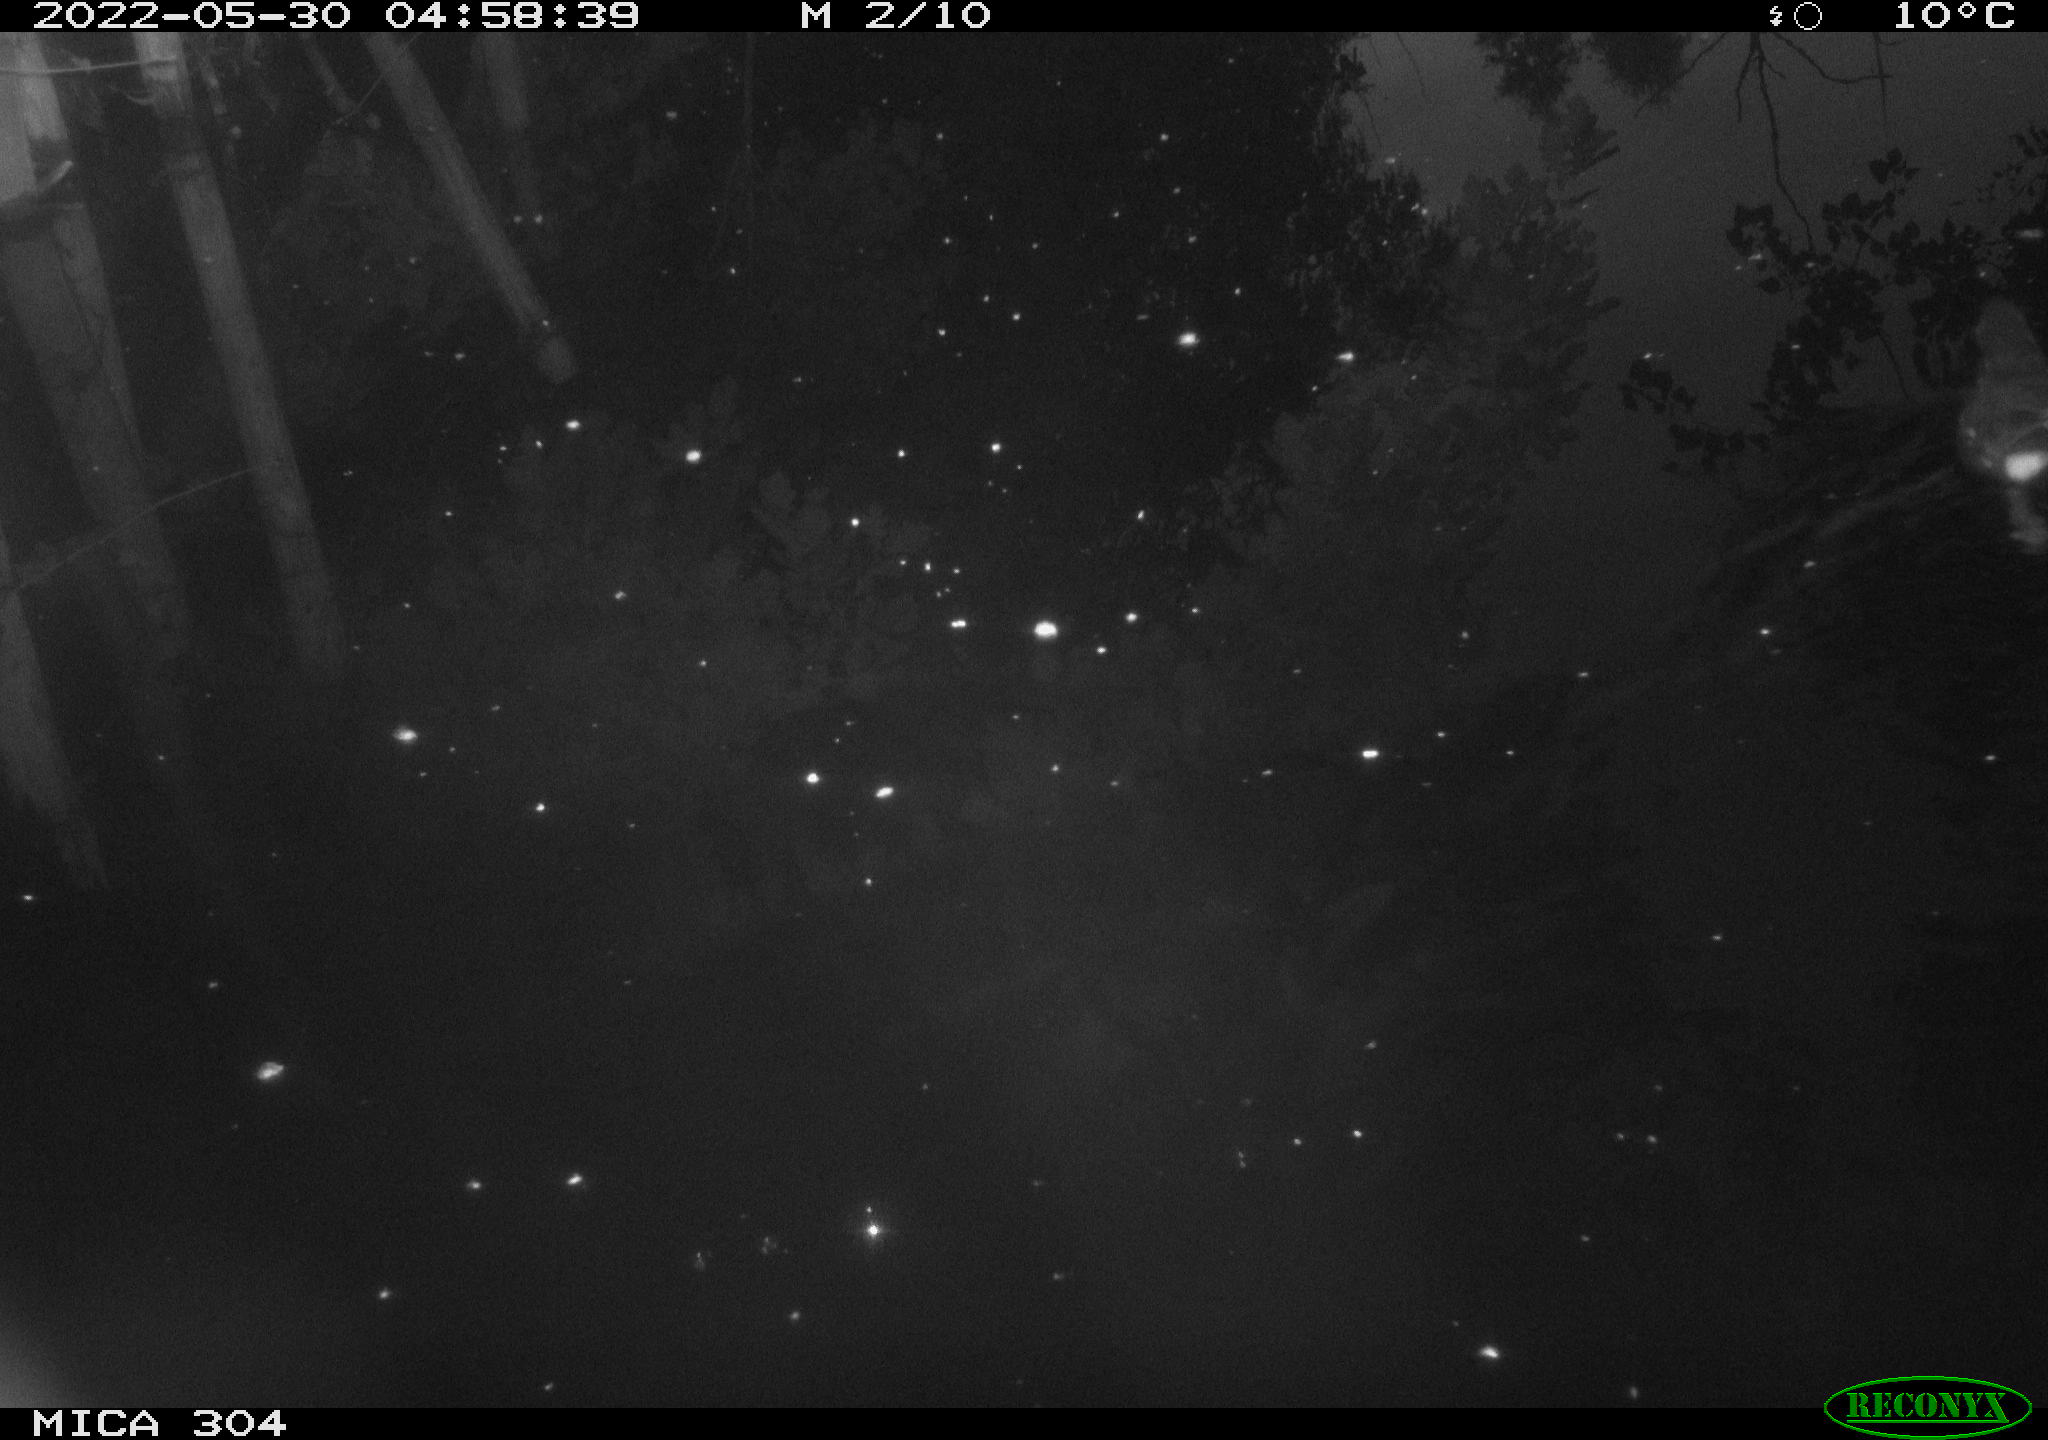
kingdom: Animalia
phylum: Chordata
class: Aves
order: Gruiformes
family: Rallidae
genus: Gallinula
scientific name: Gallinula chloropus
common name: Common moorhen
